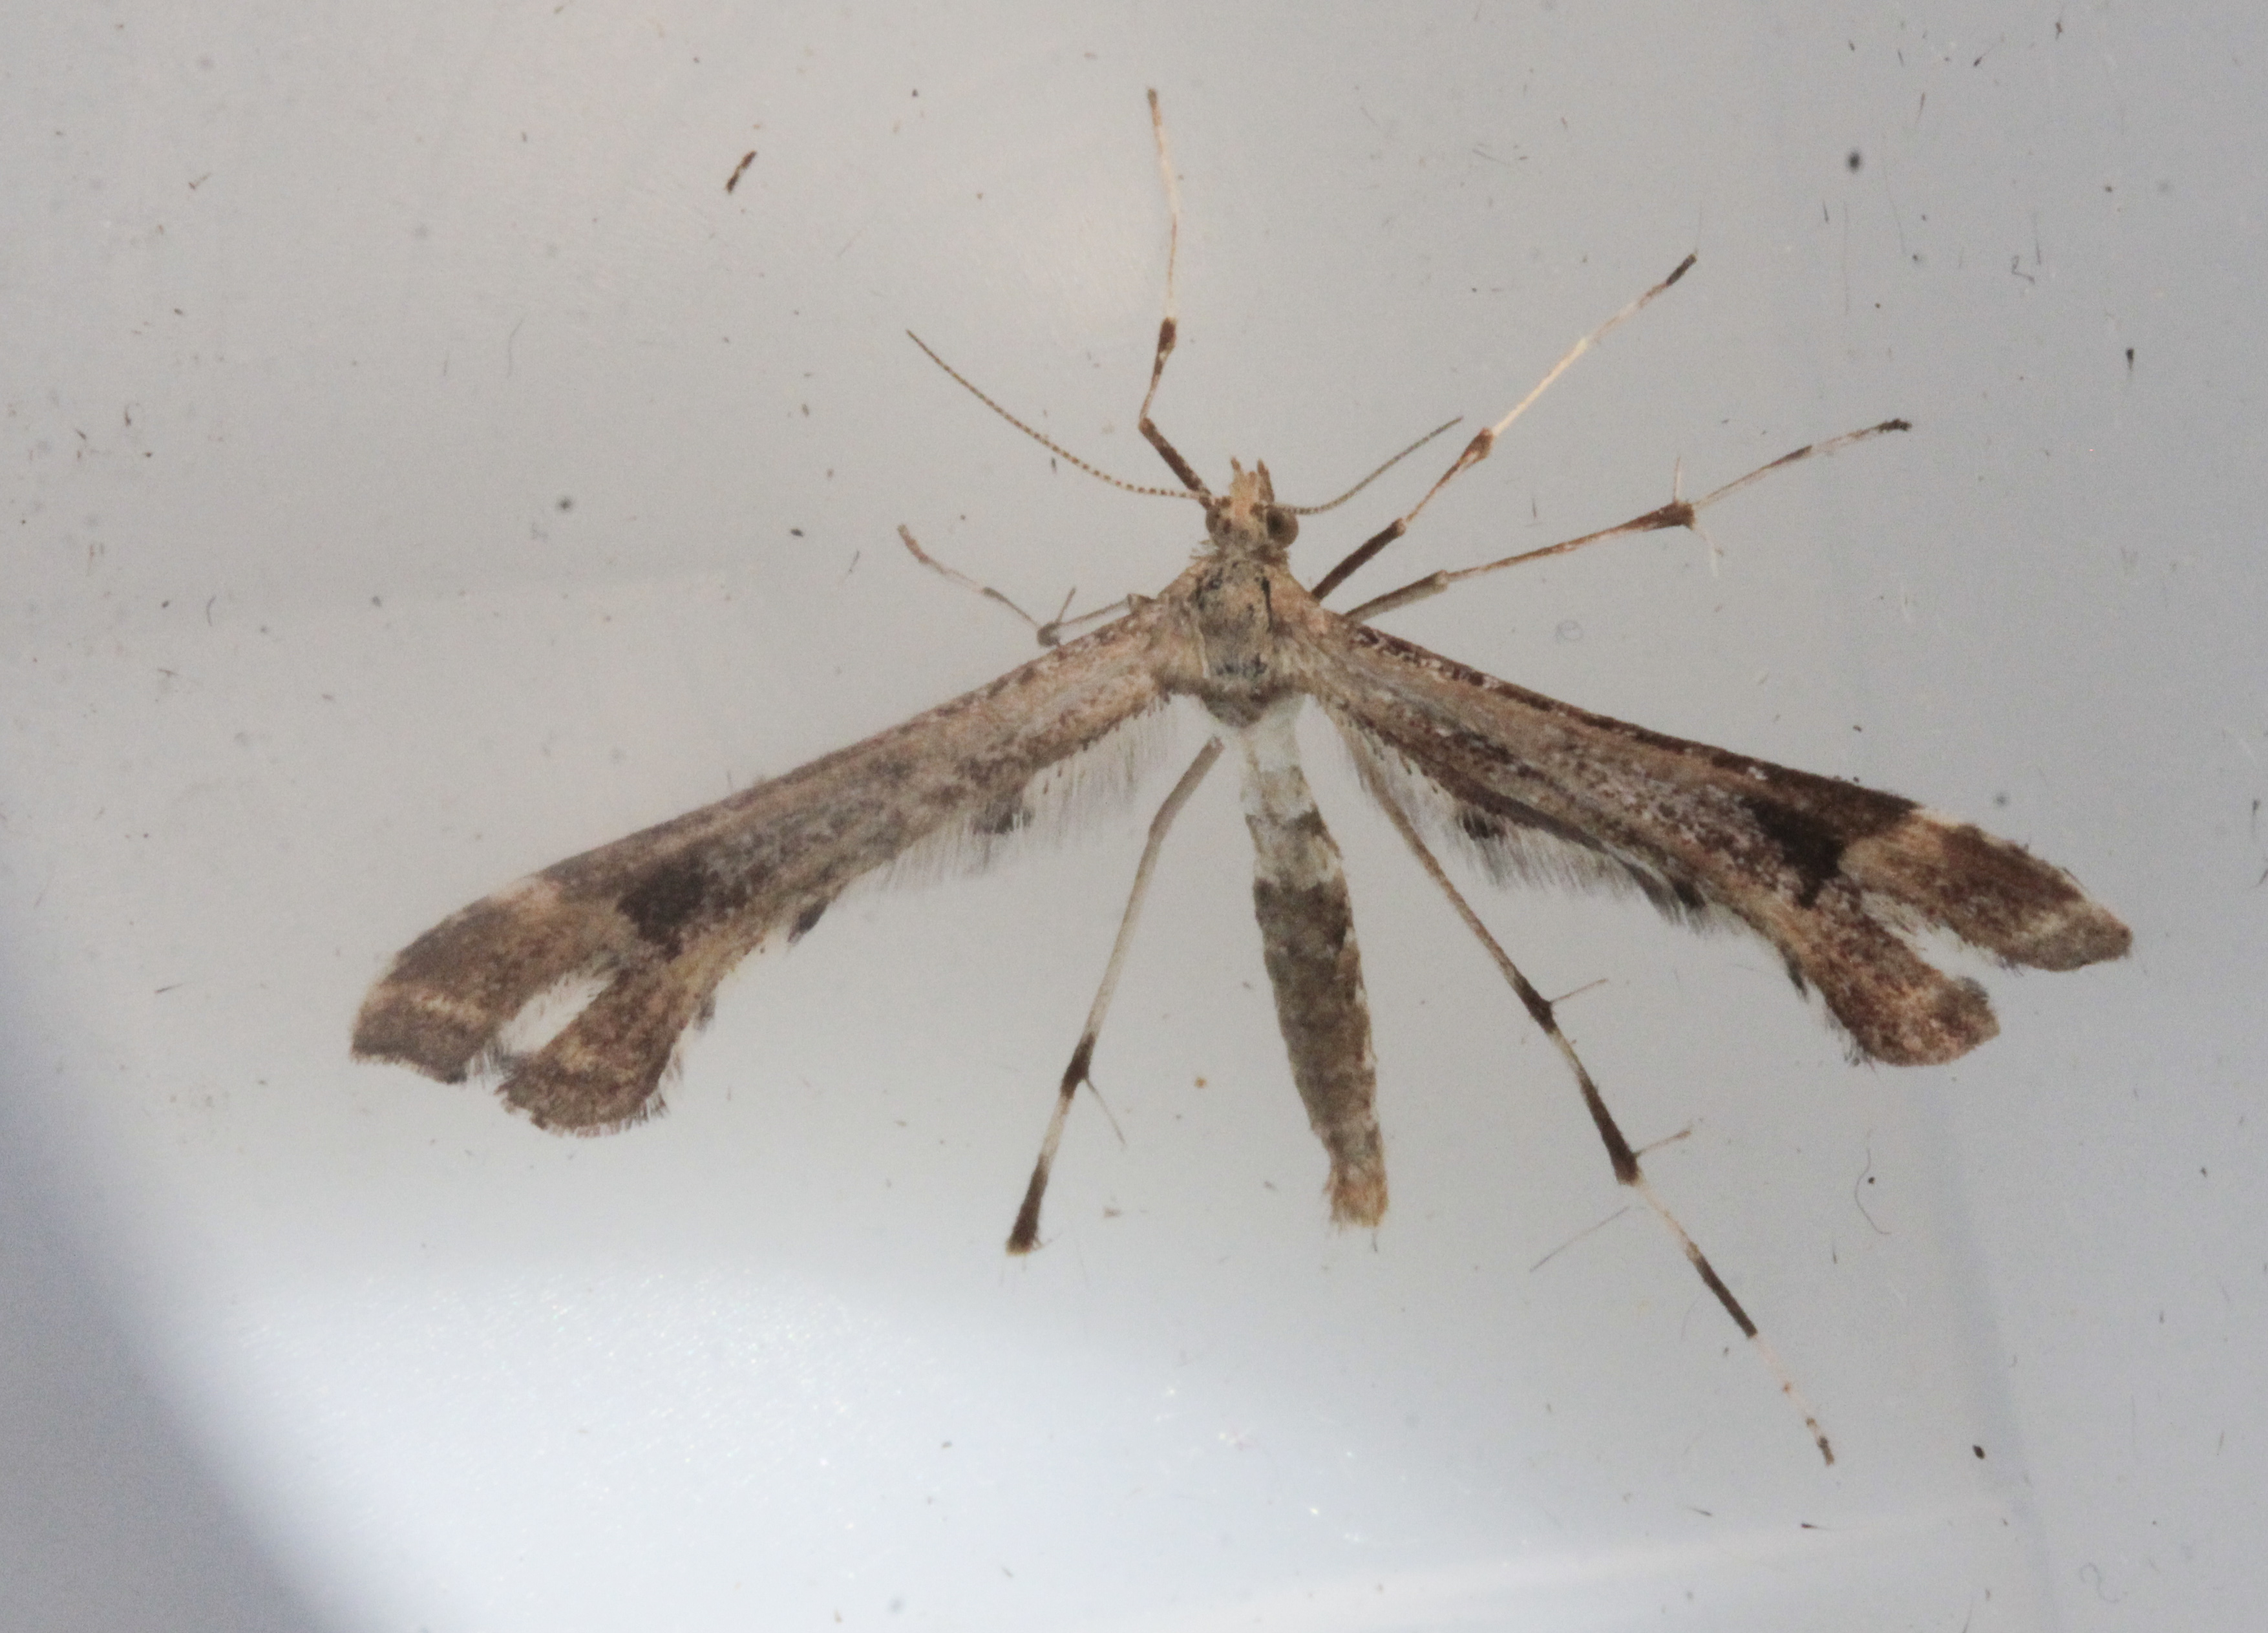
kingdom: Animalia
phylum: Arthropoda
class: Insecta
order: Lepidoptera
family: Pterophoridae
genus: Platyptilia
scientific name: Platyptilia gonodactyla
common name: Triangle plume
